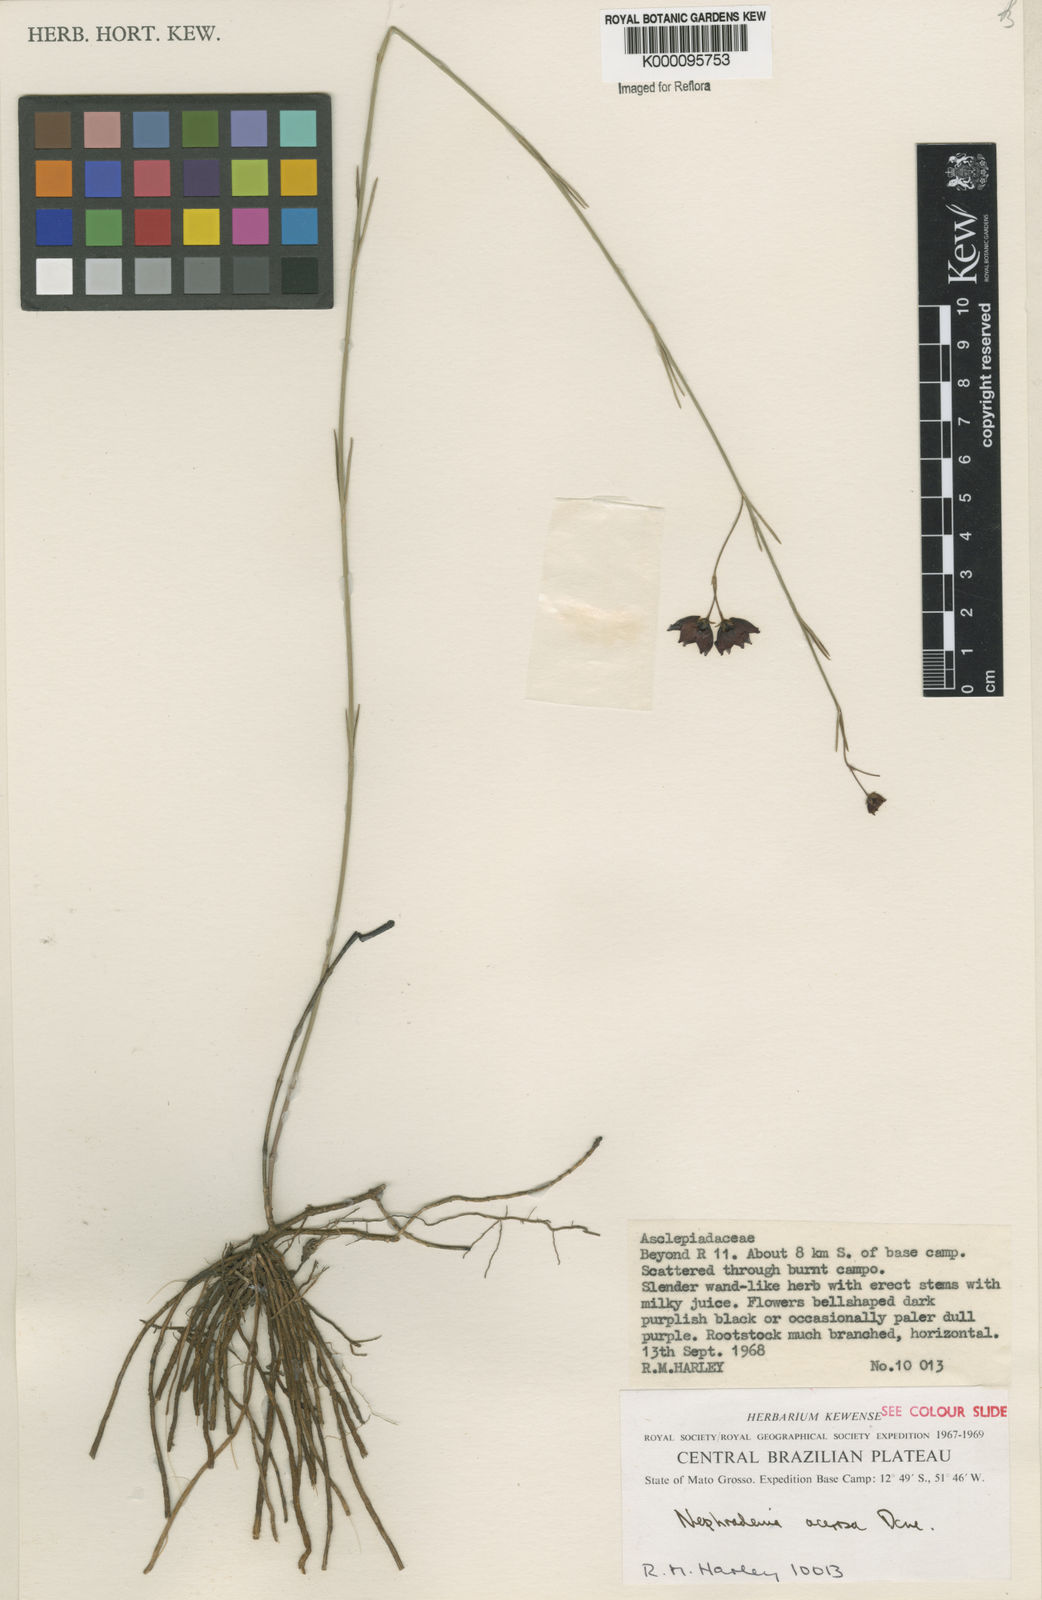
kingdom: Plantae
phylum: Tracheophyta
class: Magnoliopsida
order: Gentianales
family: Apocynaceae
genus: Nephradenia
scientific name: Nephradenia acerosa
